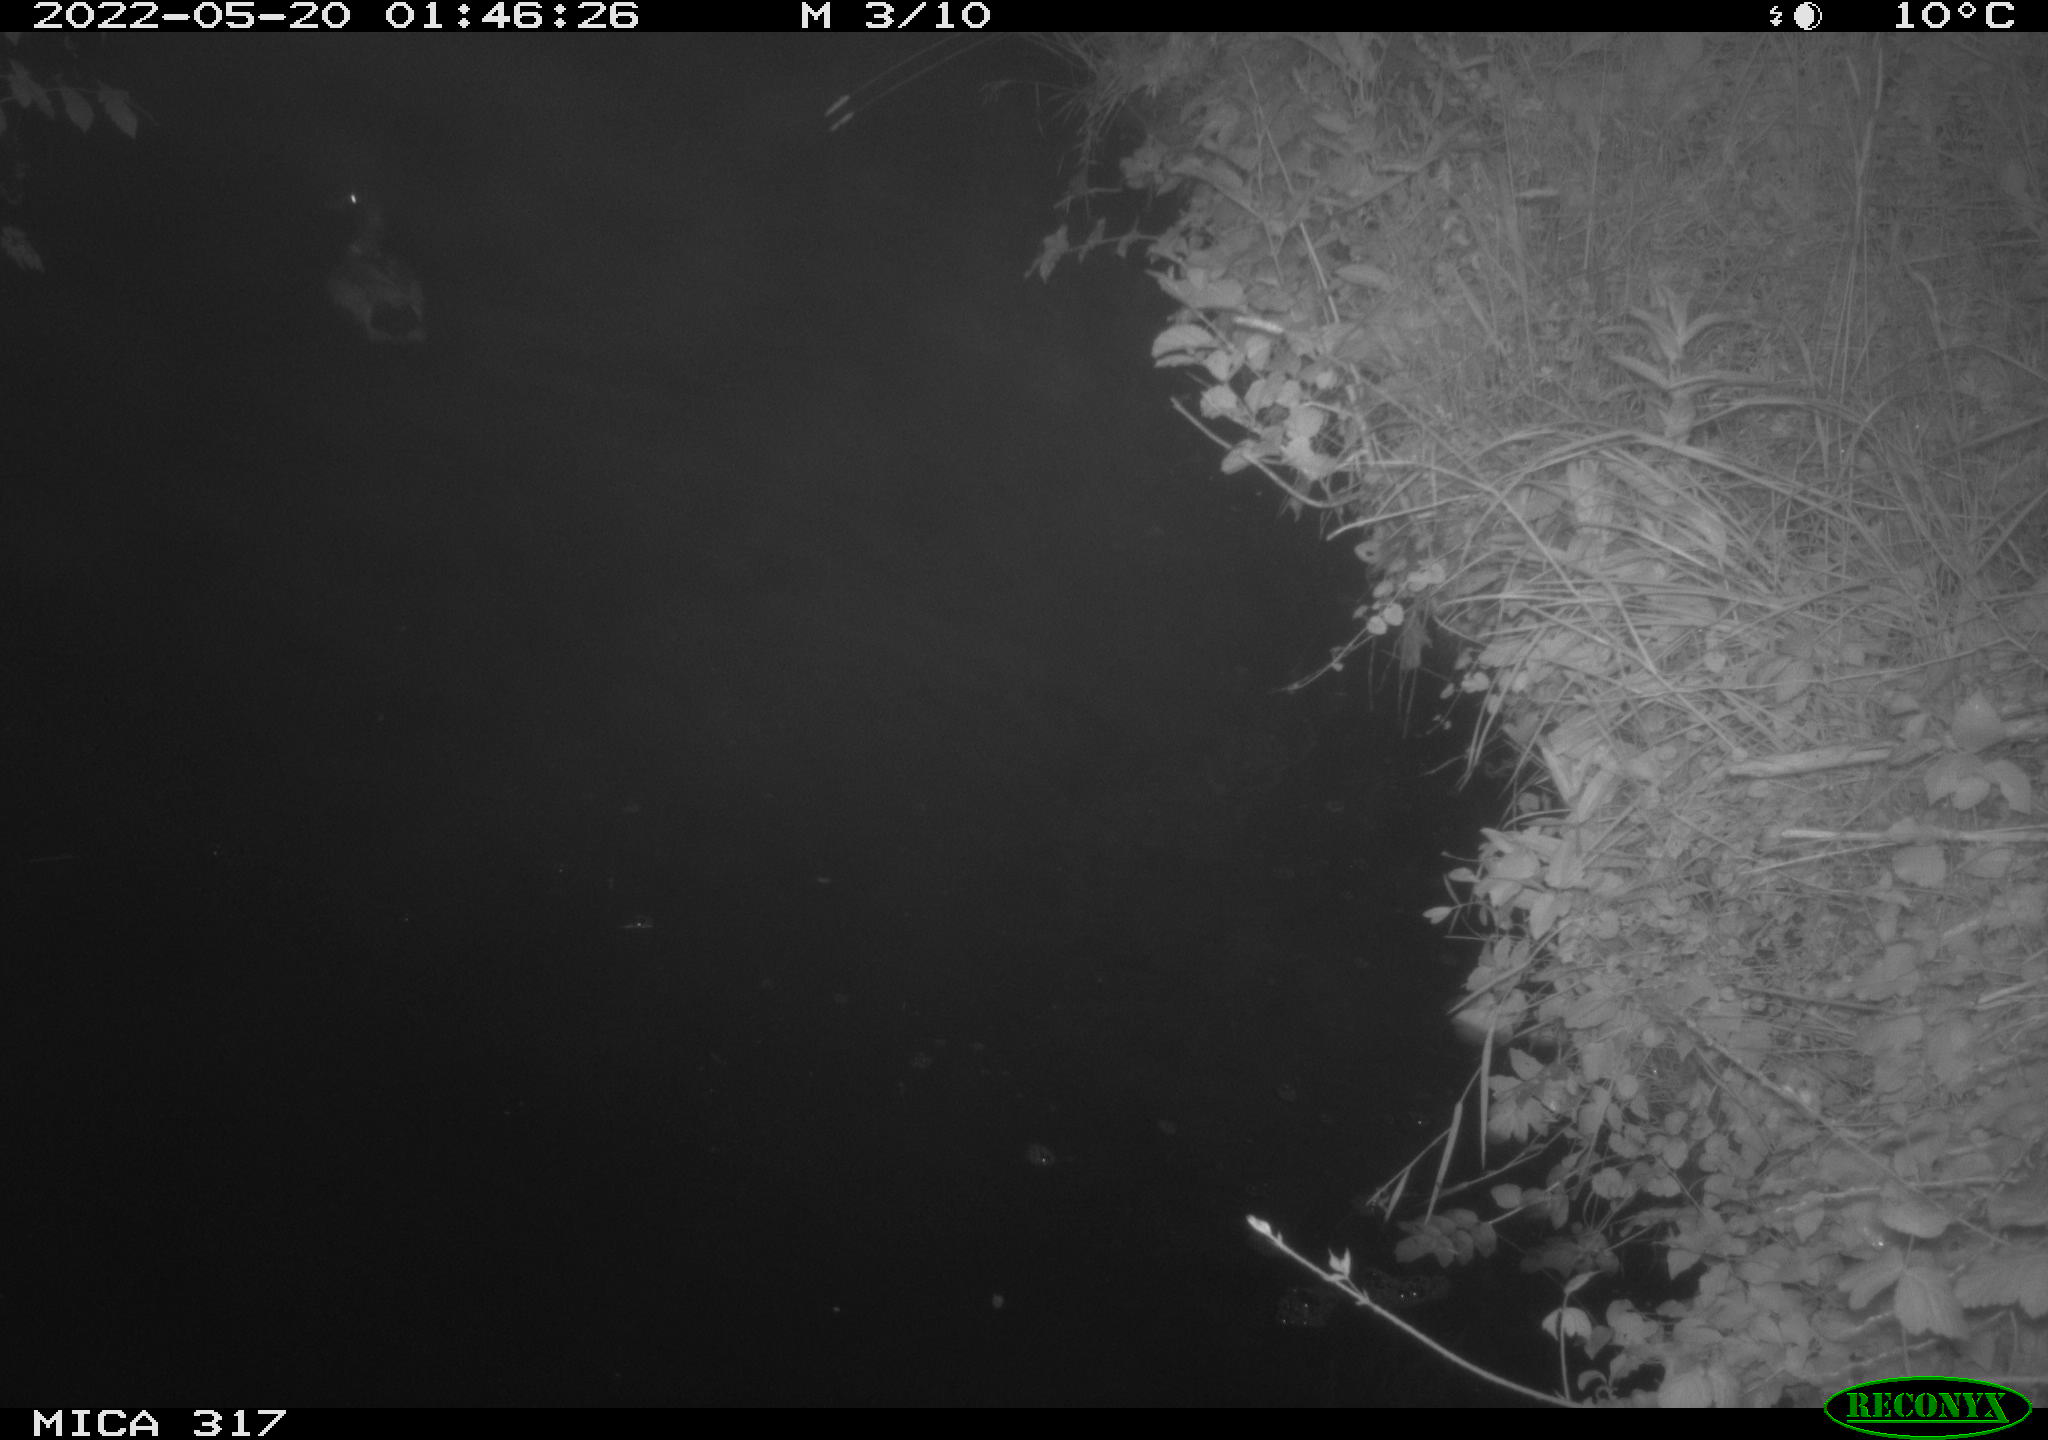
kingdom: Animalia
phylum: Chordata
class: Aves
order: Anseriformes
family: Anatidae
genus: Anas
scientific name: Anas
